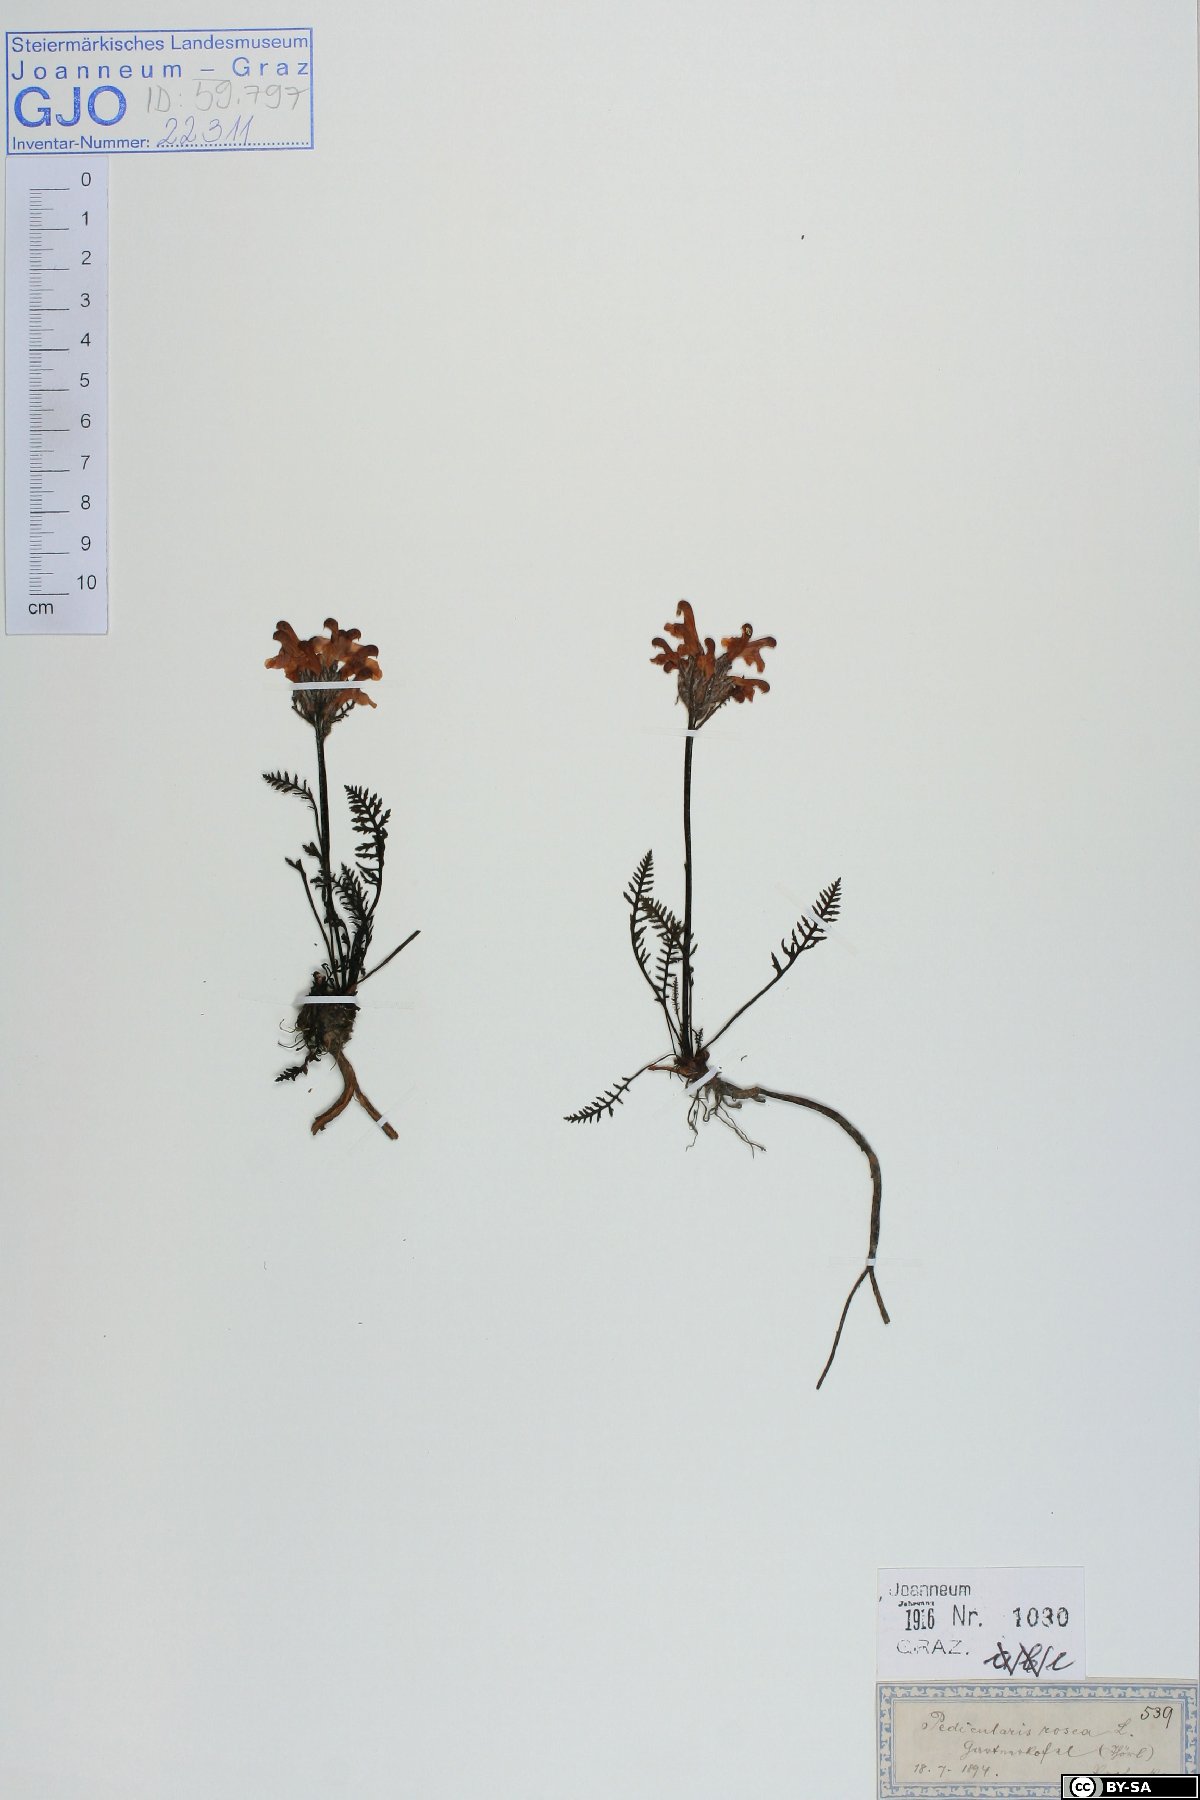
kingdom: Plantae
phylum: Tracheophyta
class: Magnoliopsida
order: Lamiales
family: Orobanchaceae
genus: Pedicularis
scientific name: Pedicularis rosea
